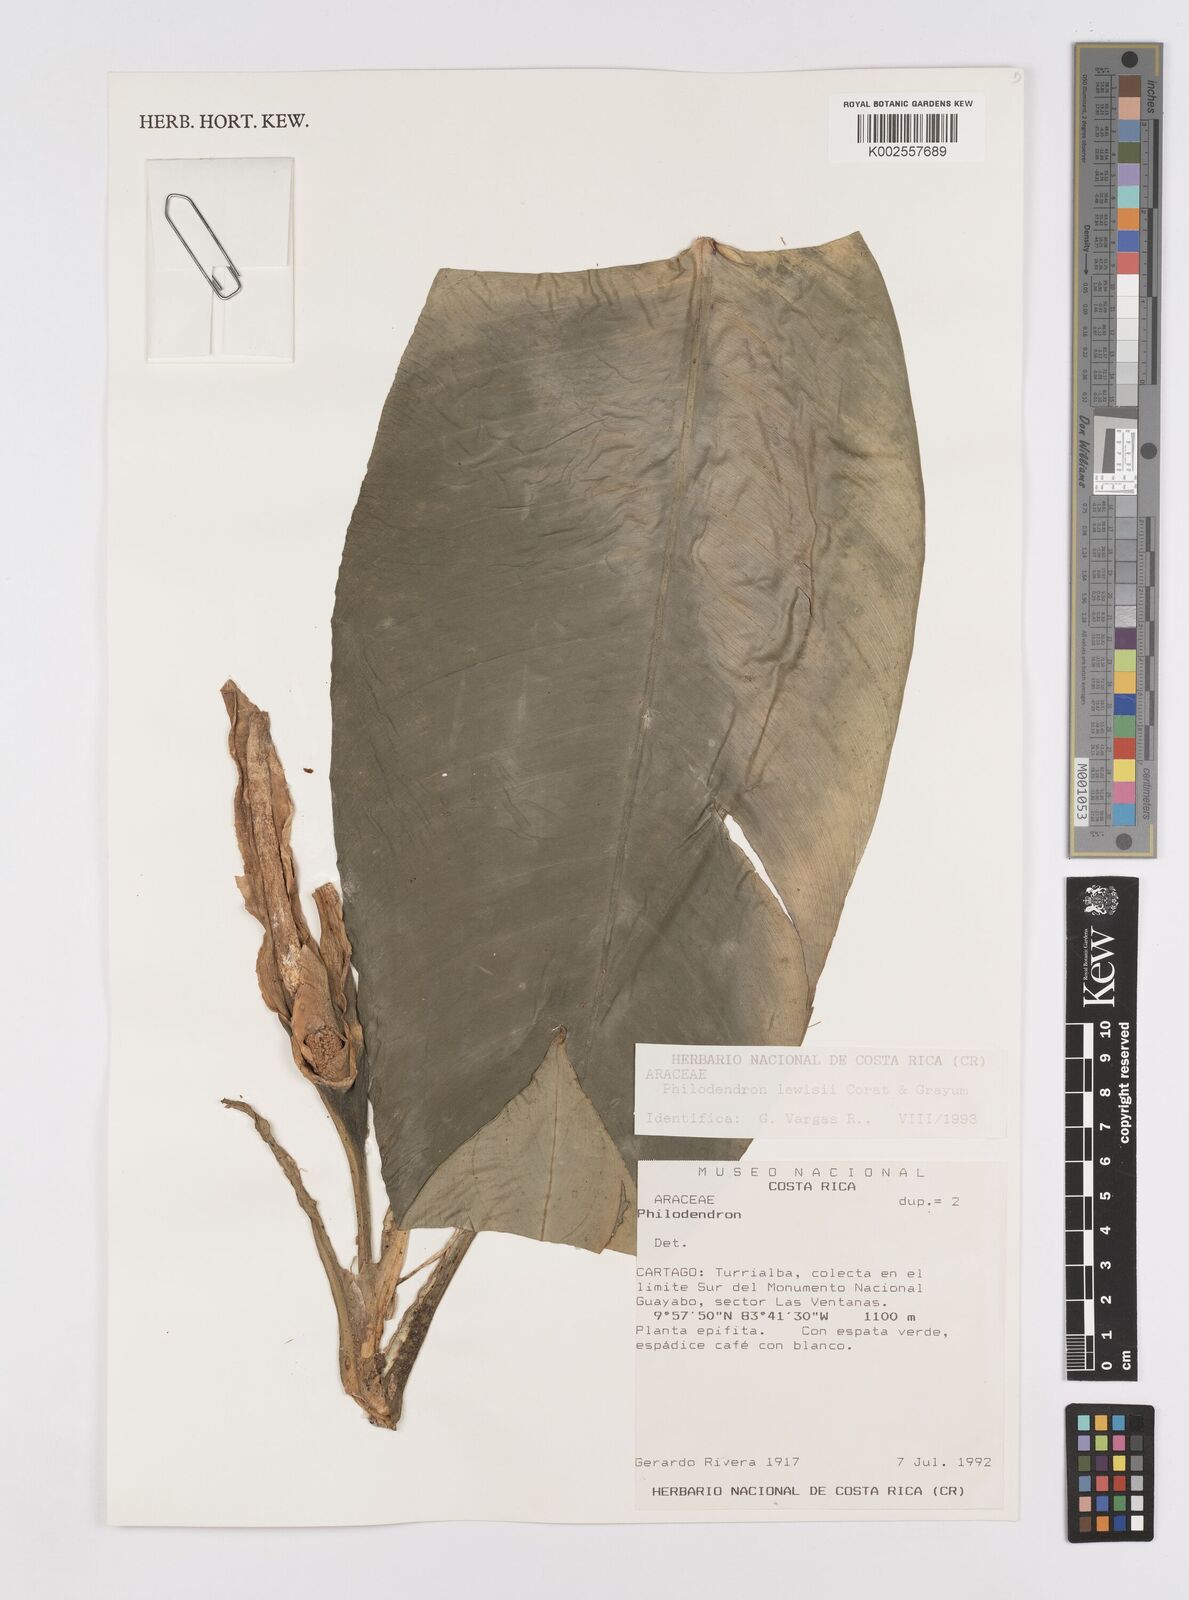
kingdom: Plantae
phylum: Tracheophyta
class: Liliopsida
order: Alismatales
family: Araceae
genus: Philodendron
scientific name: Philodendron rhodoaxis
